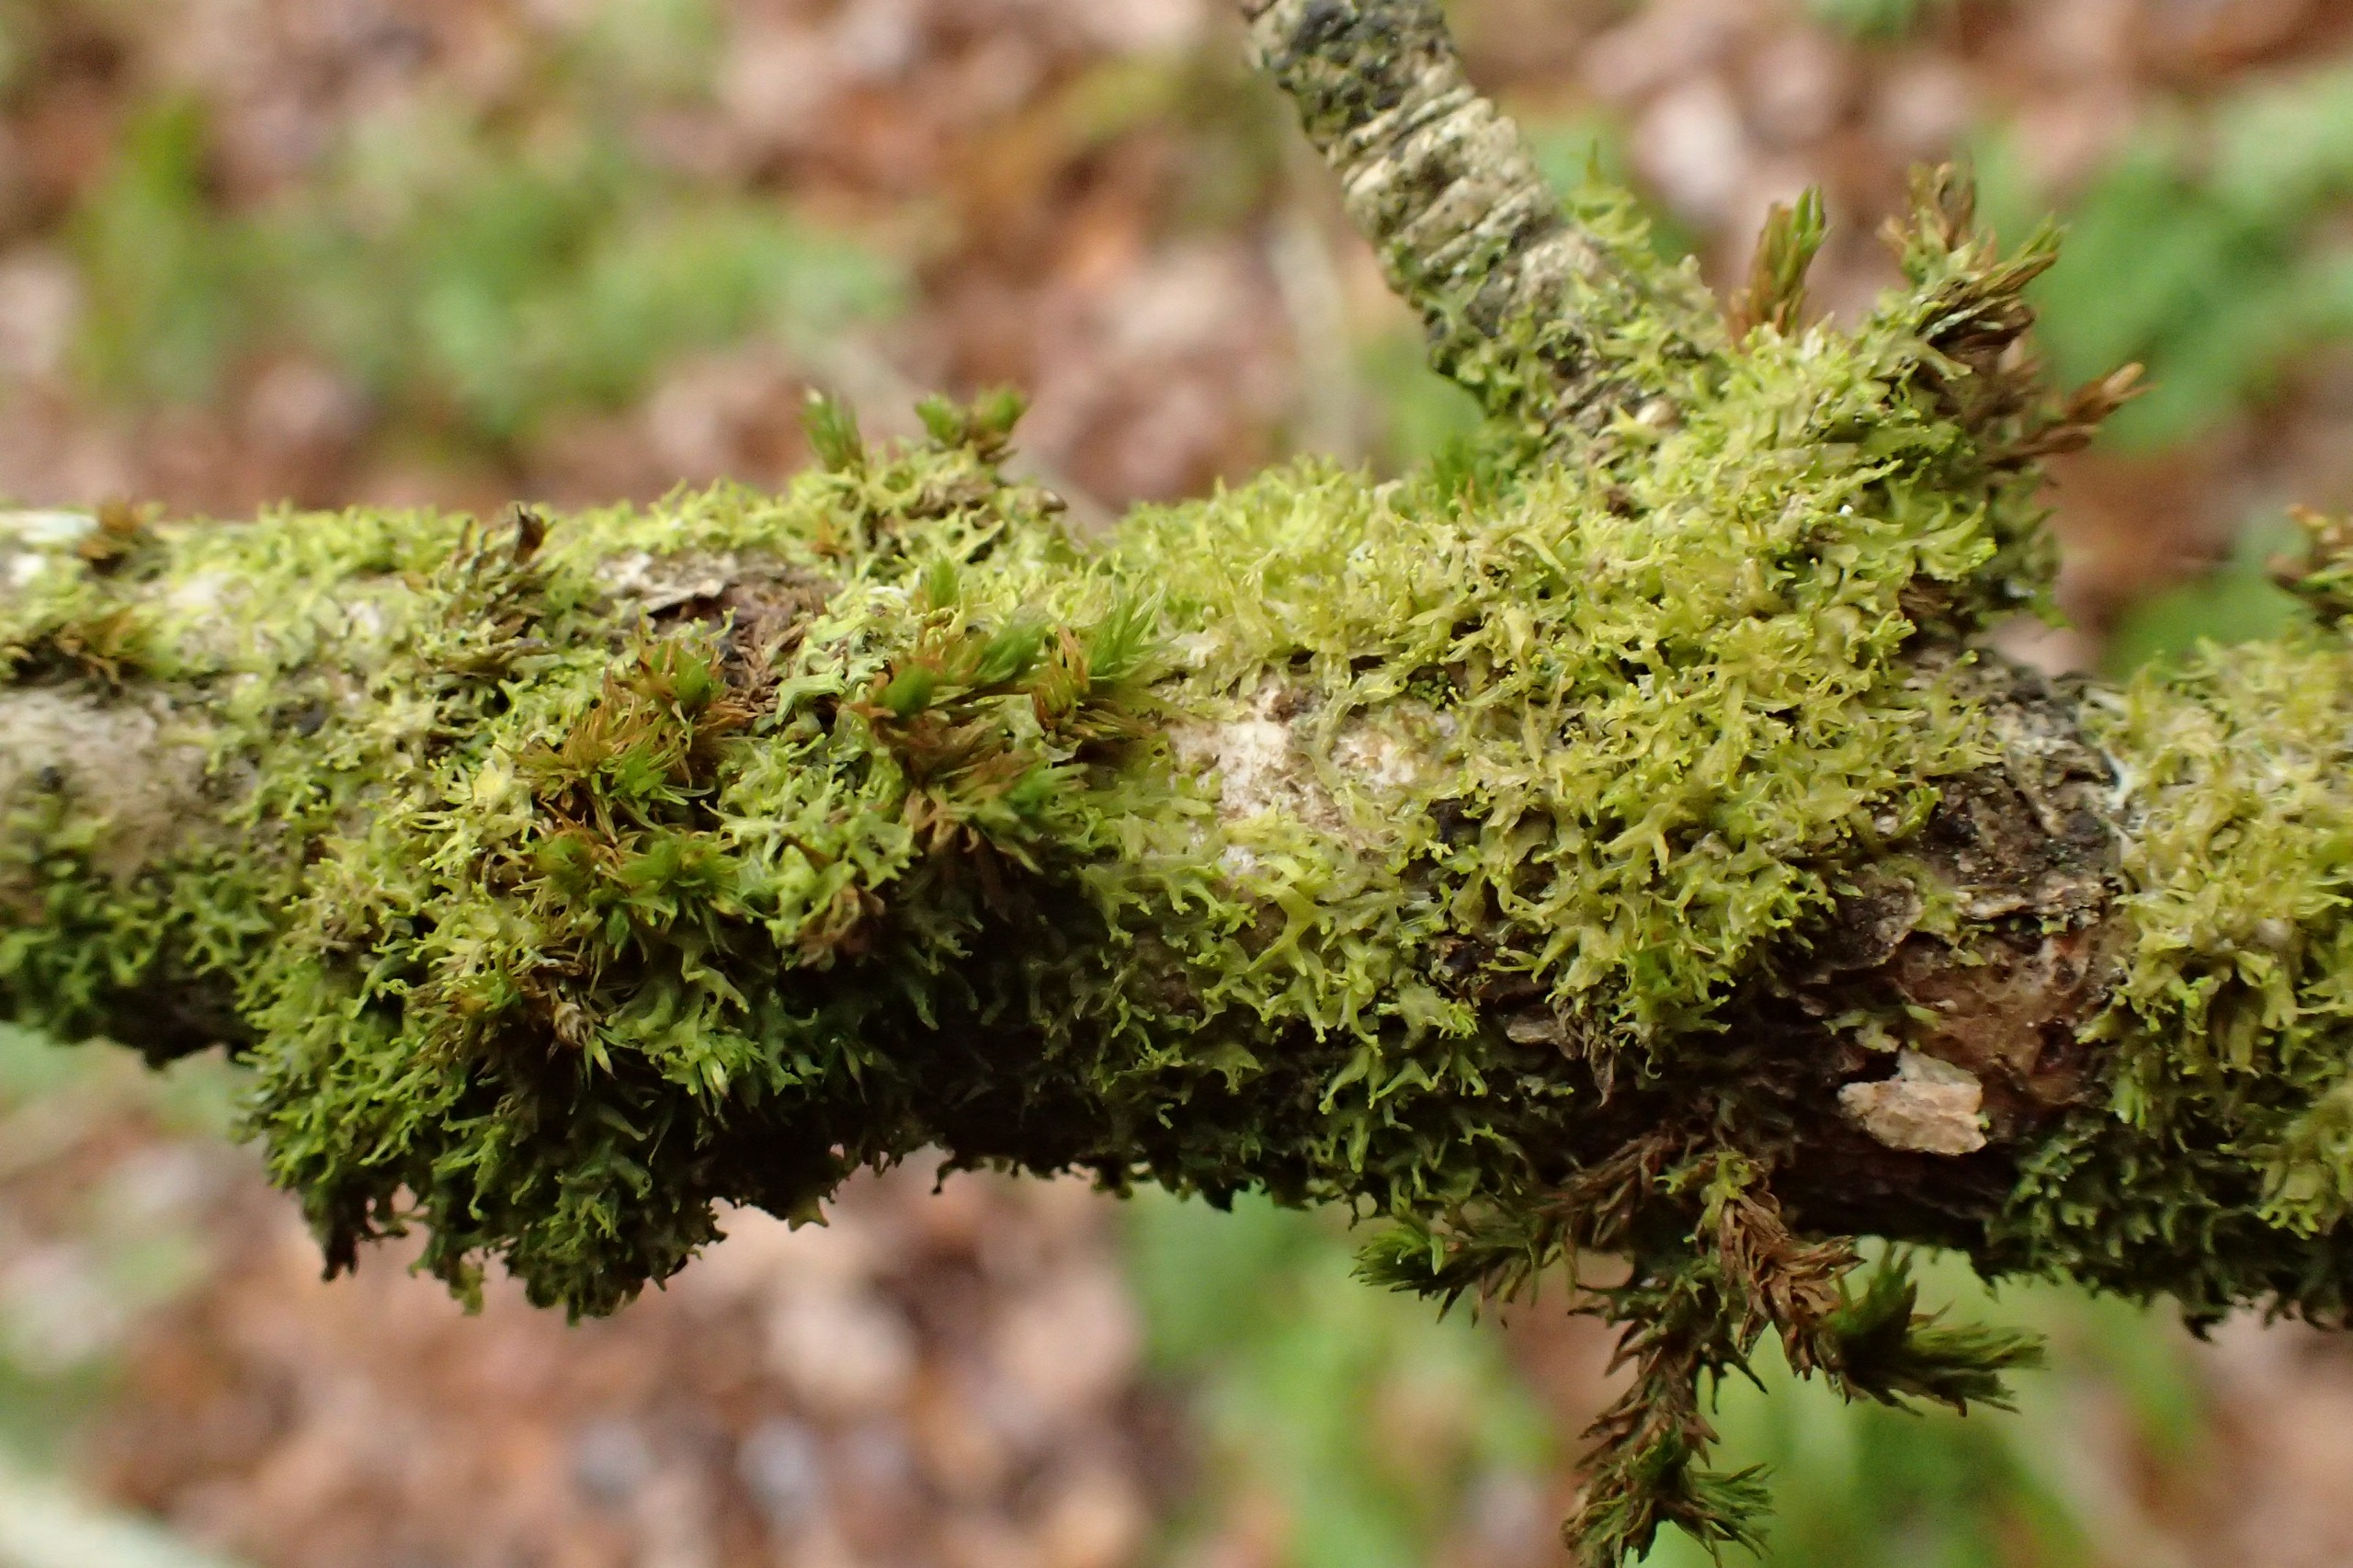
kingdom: Plantae
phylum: Marchantiophyta
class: Jungermanniopsida
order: Metzgeriales
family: Aneuraceae
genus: Riccardia
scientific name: Riccardia palmata
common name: Blågrøn gaffelløv
